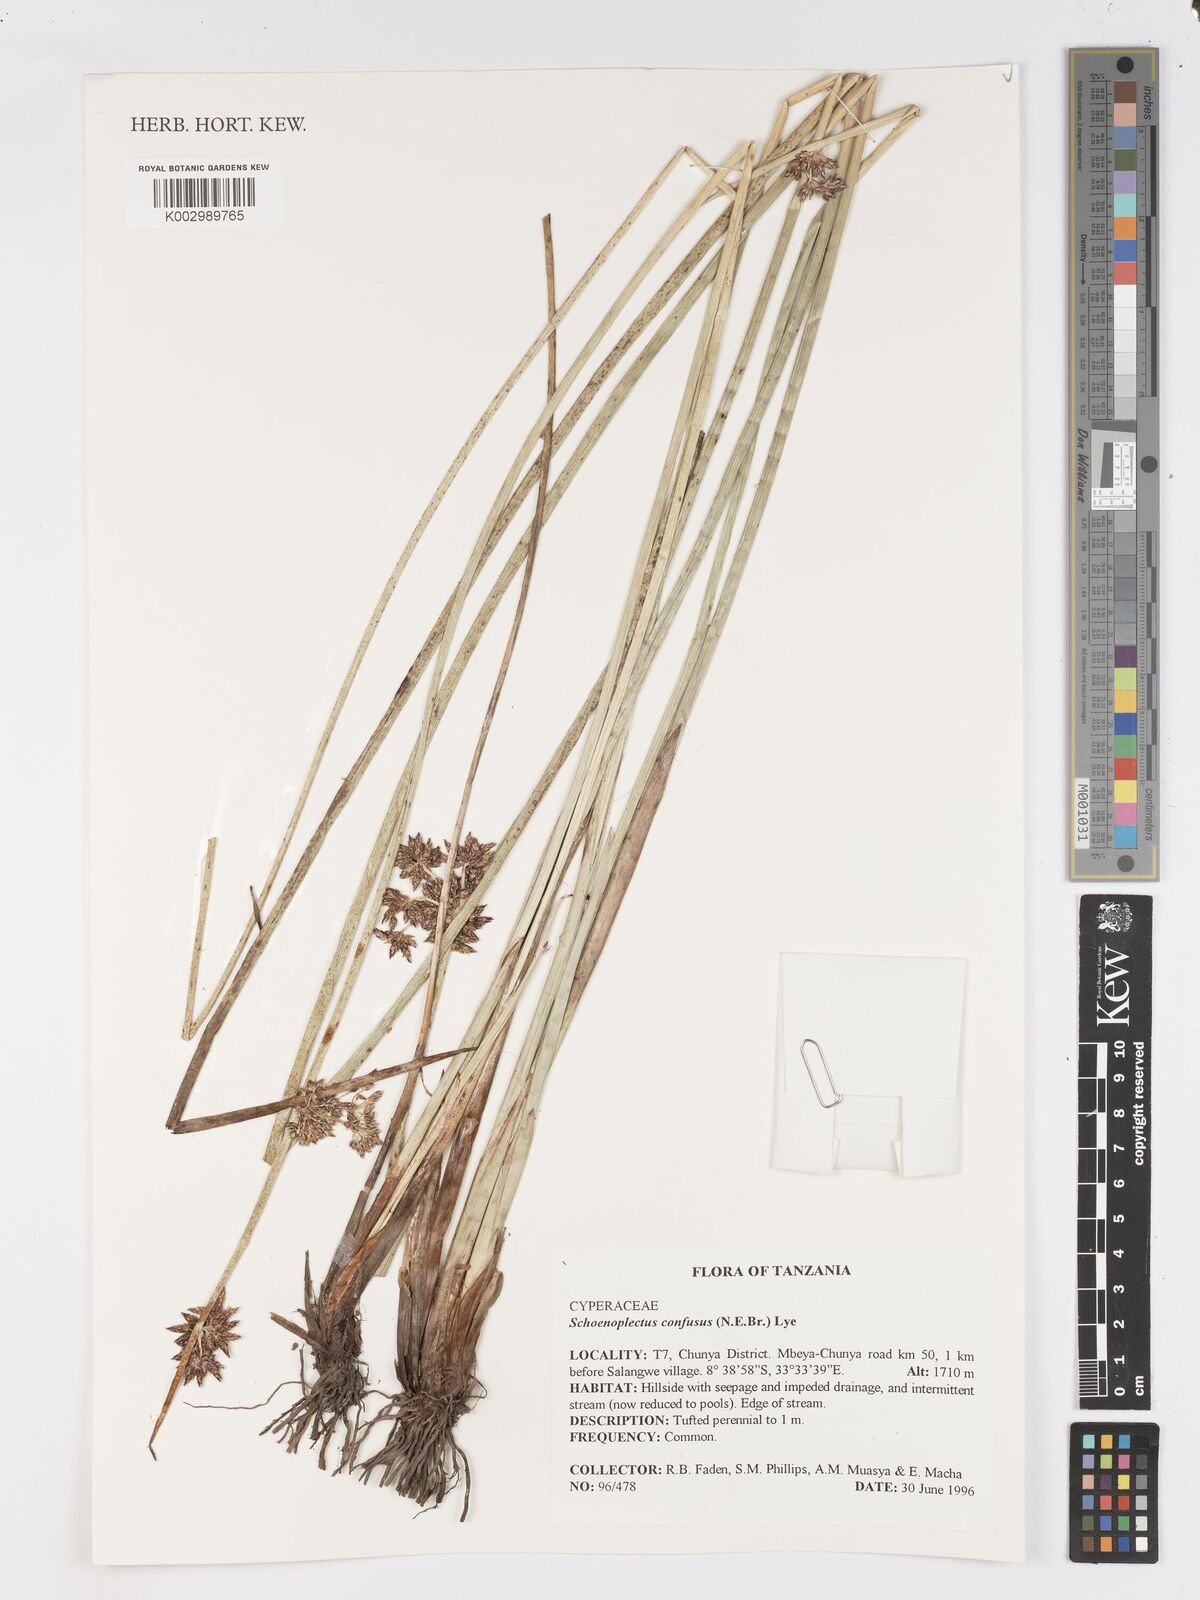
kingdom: Plantae
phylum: Tracheophyta
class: Liliopsida
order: Poales
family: Cyperaceae
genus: Schoenoplectiella
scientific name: Schoenoplectiella confusa
